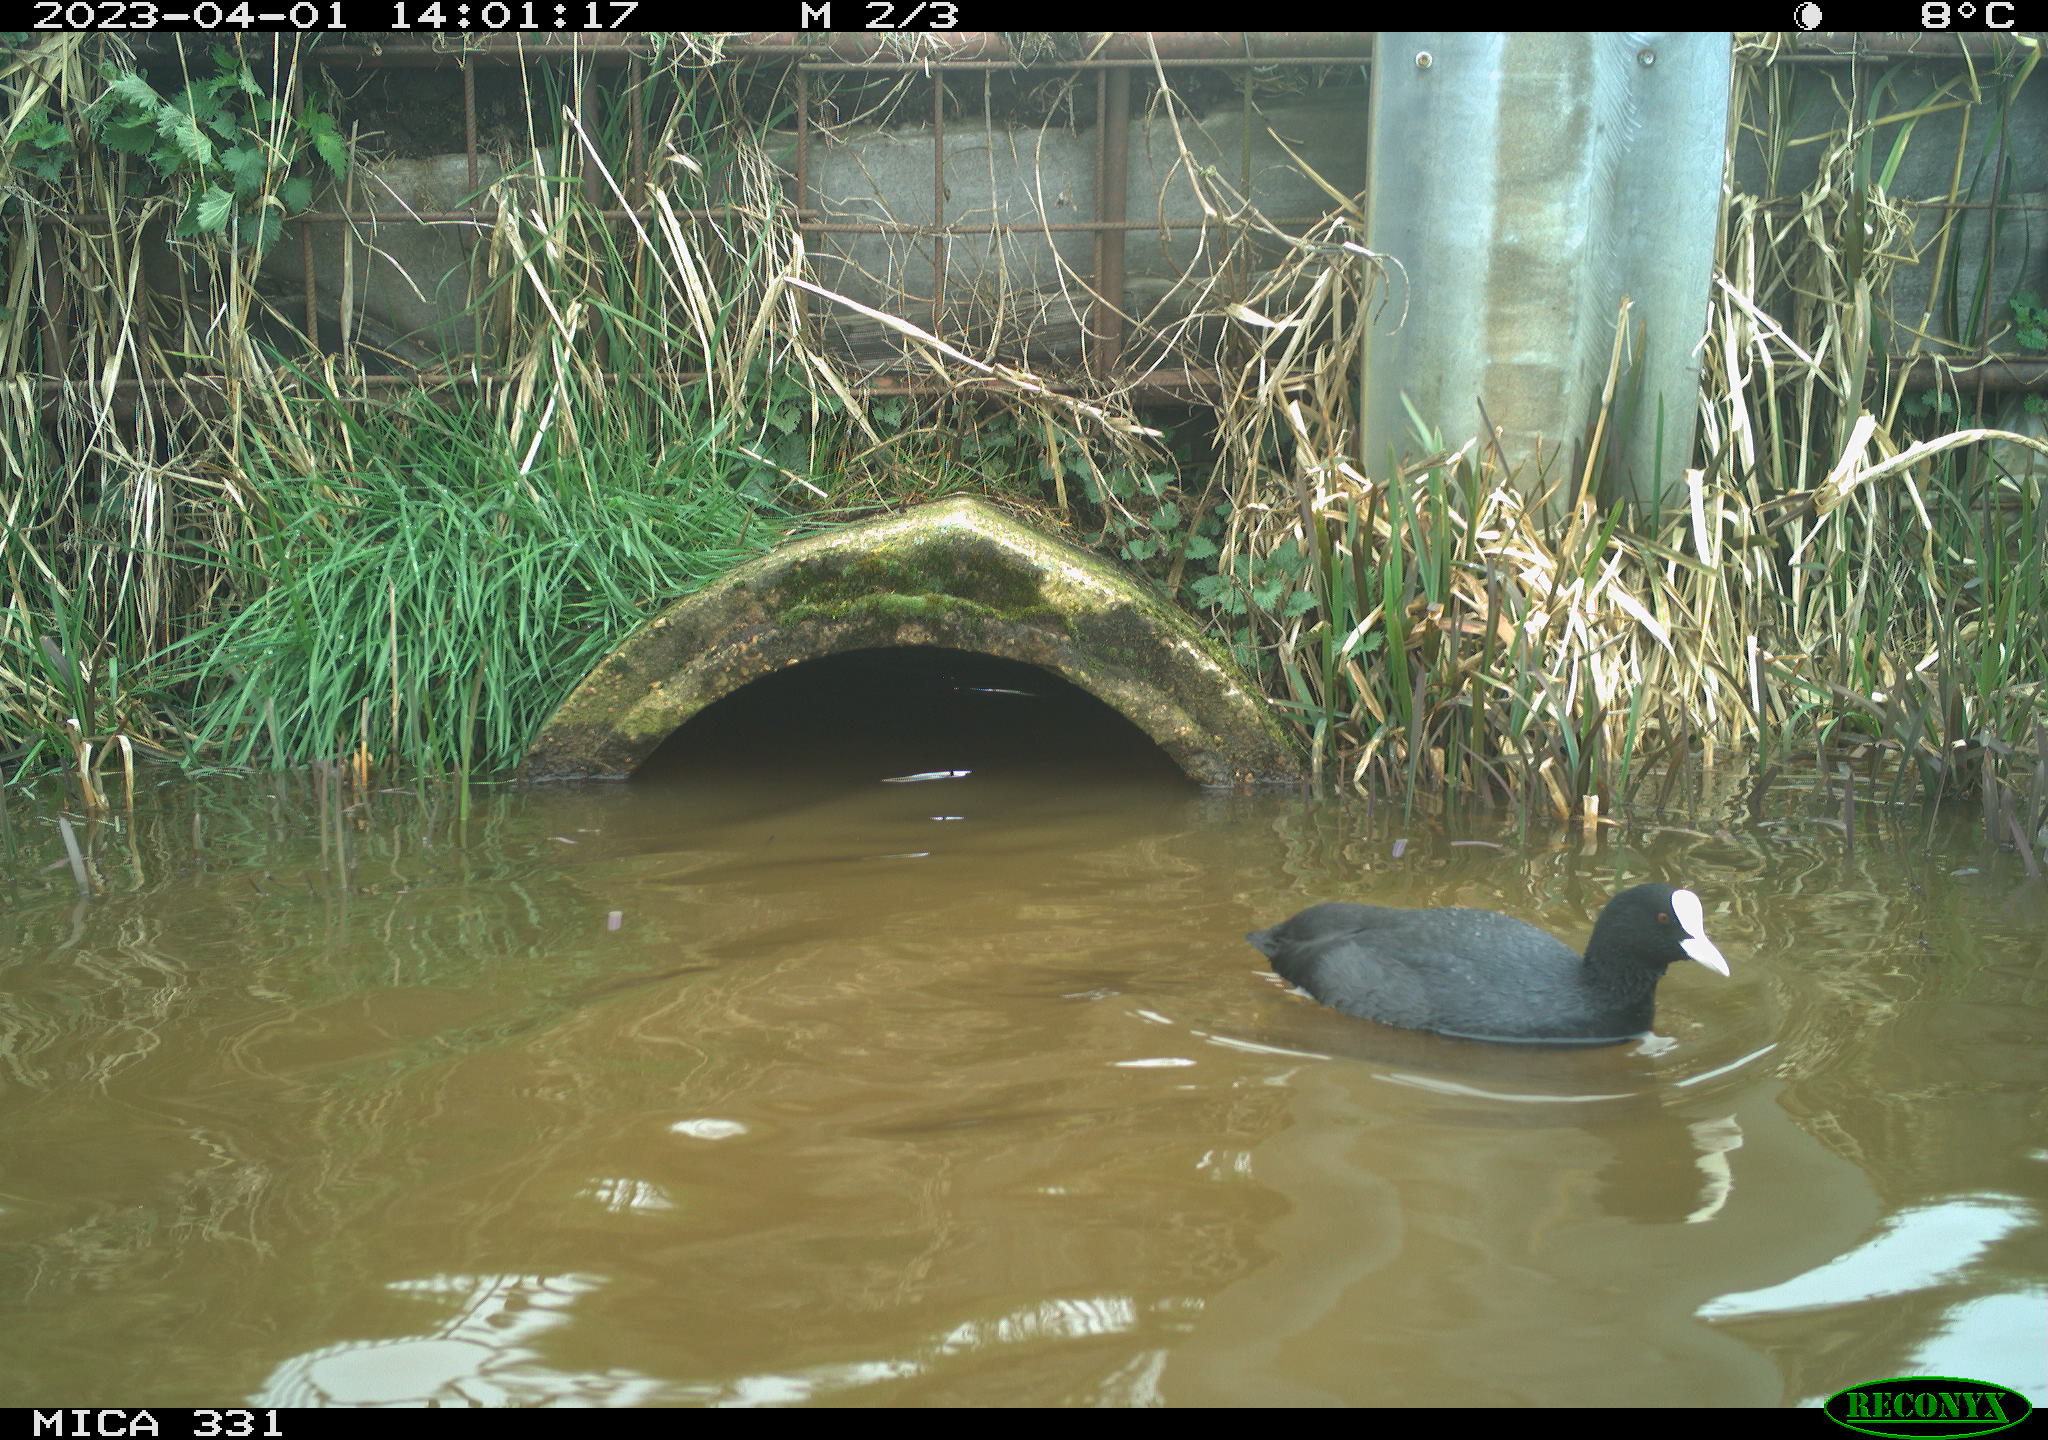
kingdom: Animalia
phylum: Chordata
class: Aves
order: Gruiformes
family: Rallidae
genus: Fulica
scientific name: Fulica atra
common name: Eurasian coot
